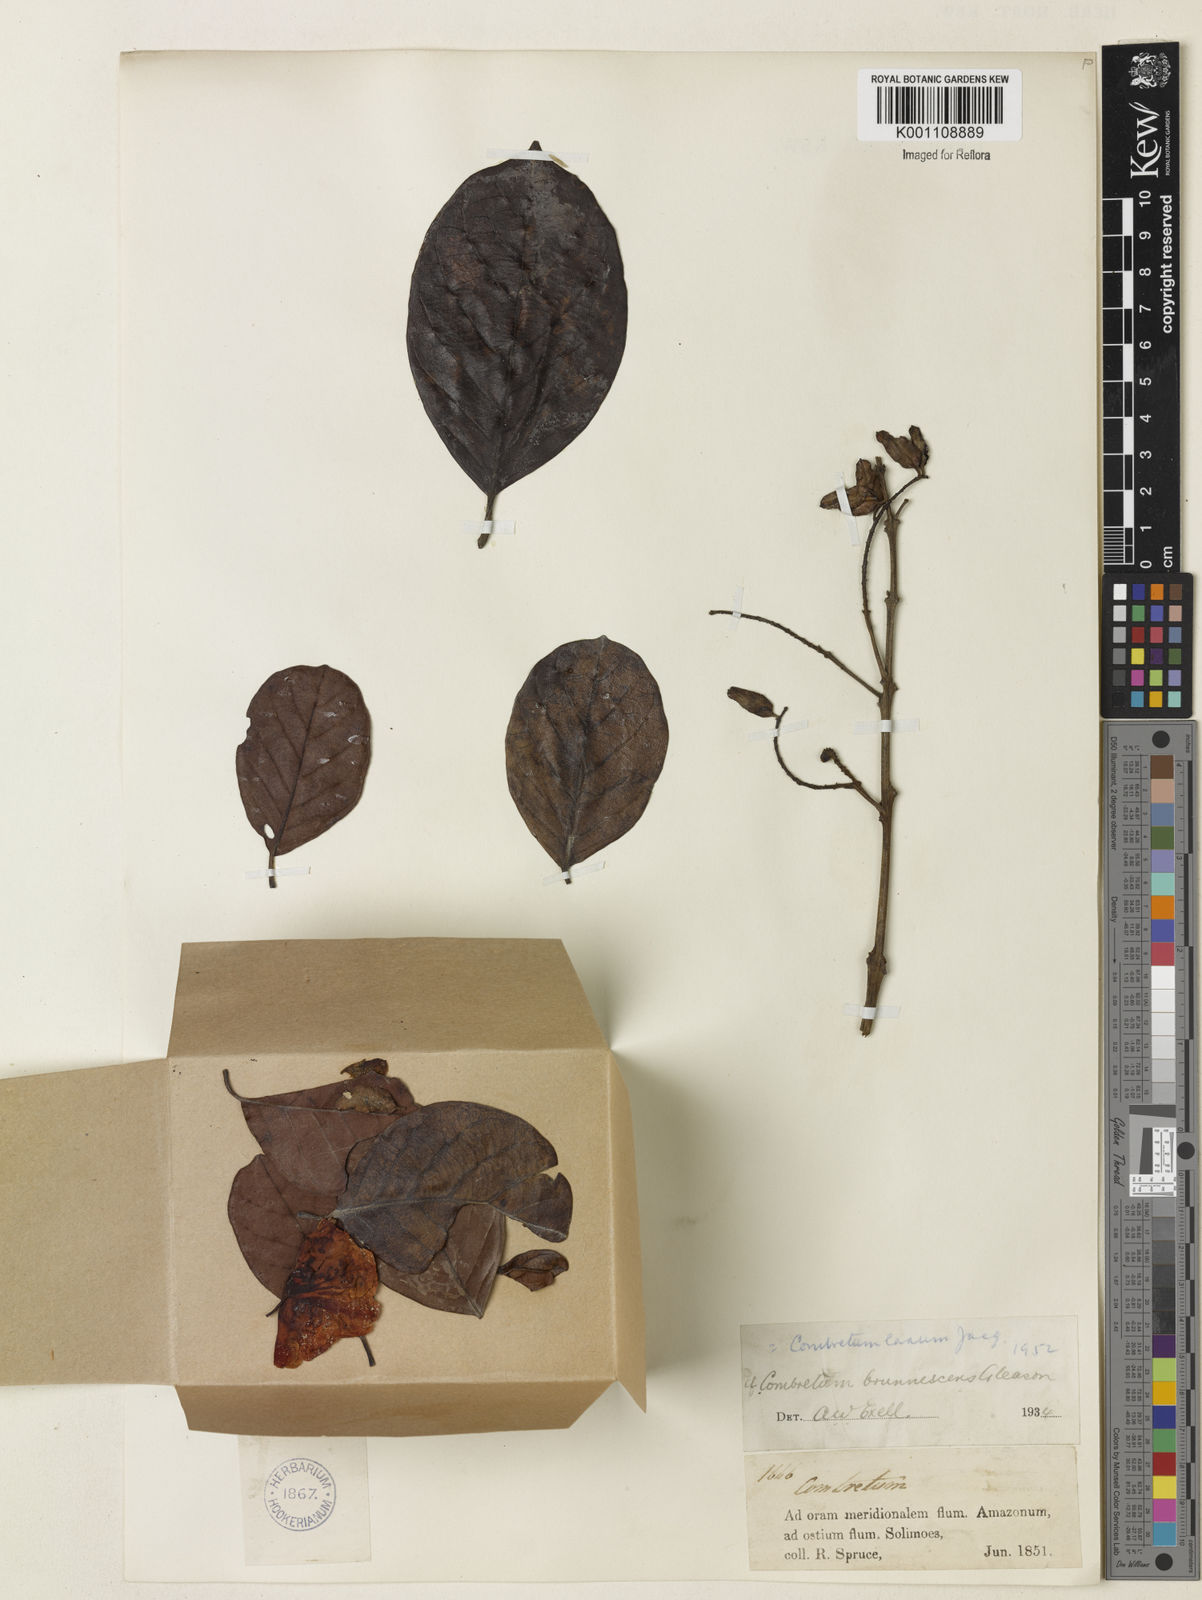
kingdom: Plantae
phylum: Tracheophyta
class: Magnoliopsida
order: Myrtales
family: Combretaceae
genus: Combretum
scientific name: Combretum laxum
